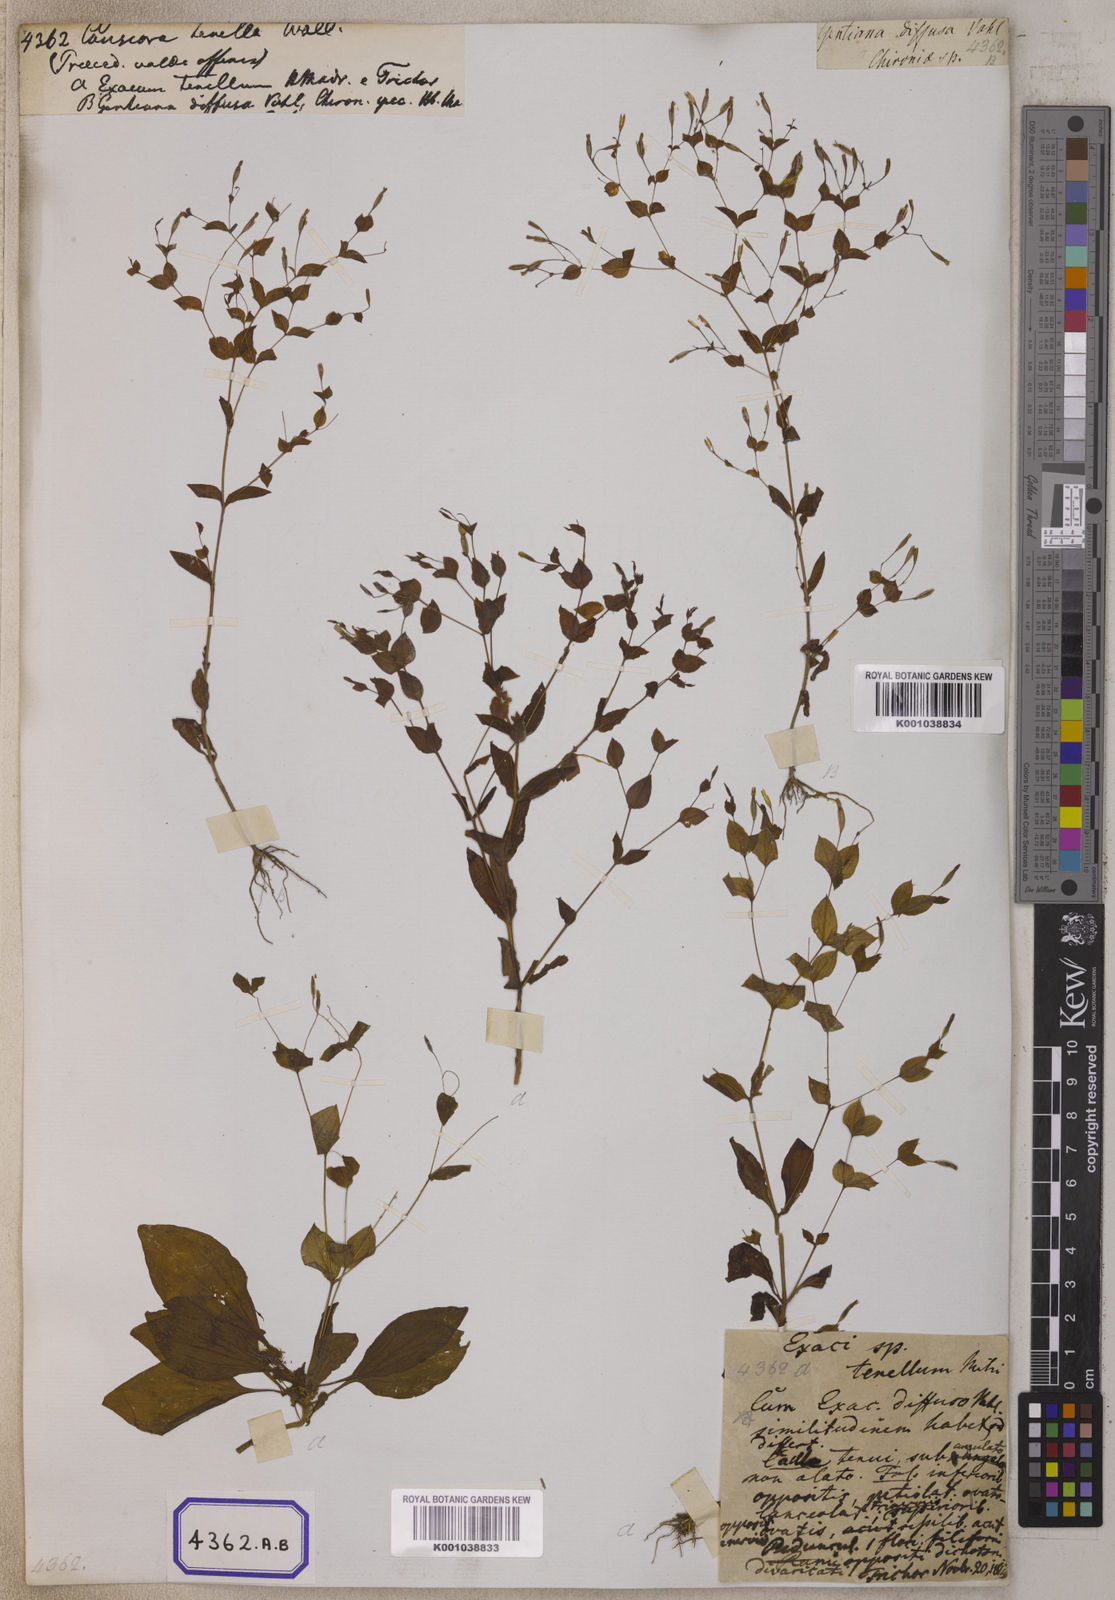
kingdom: Plantae
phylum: Tracheophyta
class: Magnoliopsida
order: Gentianales
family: Gentianaceae
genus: Canscora
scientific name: Canscora
